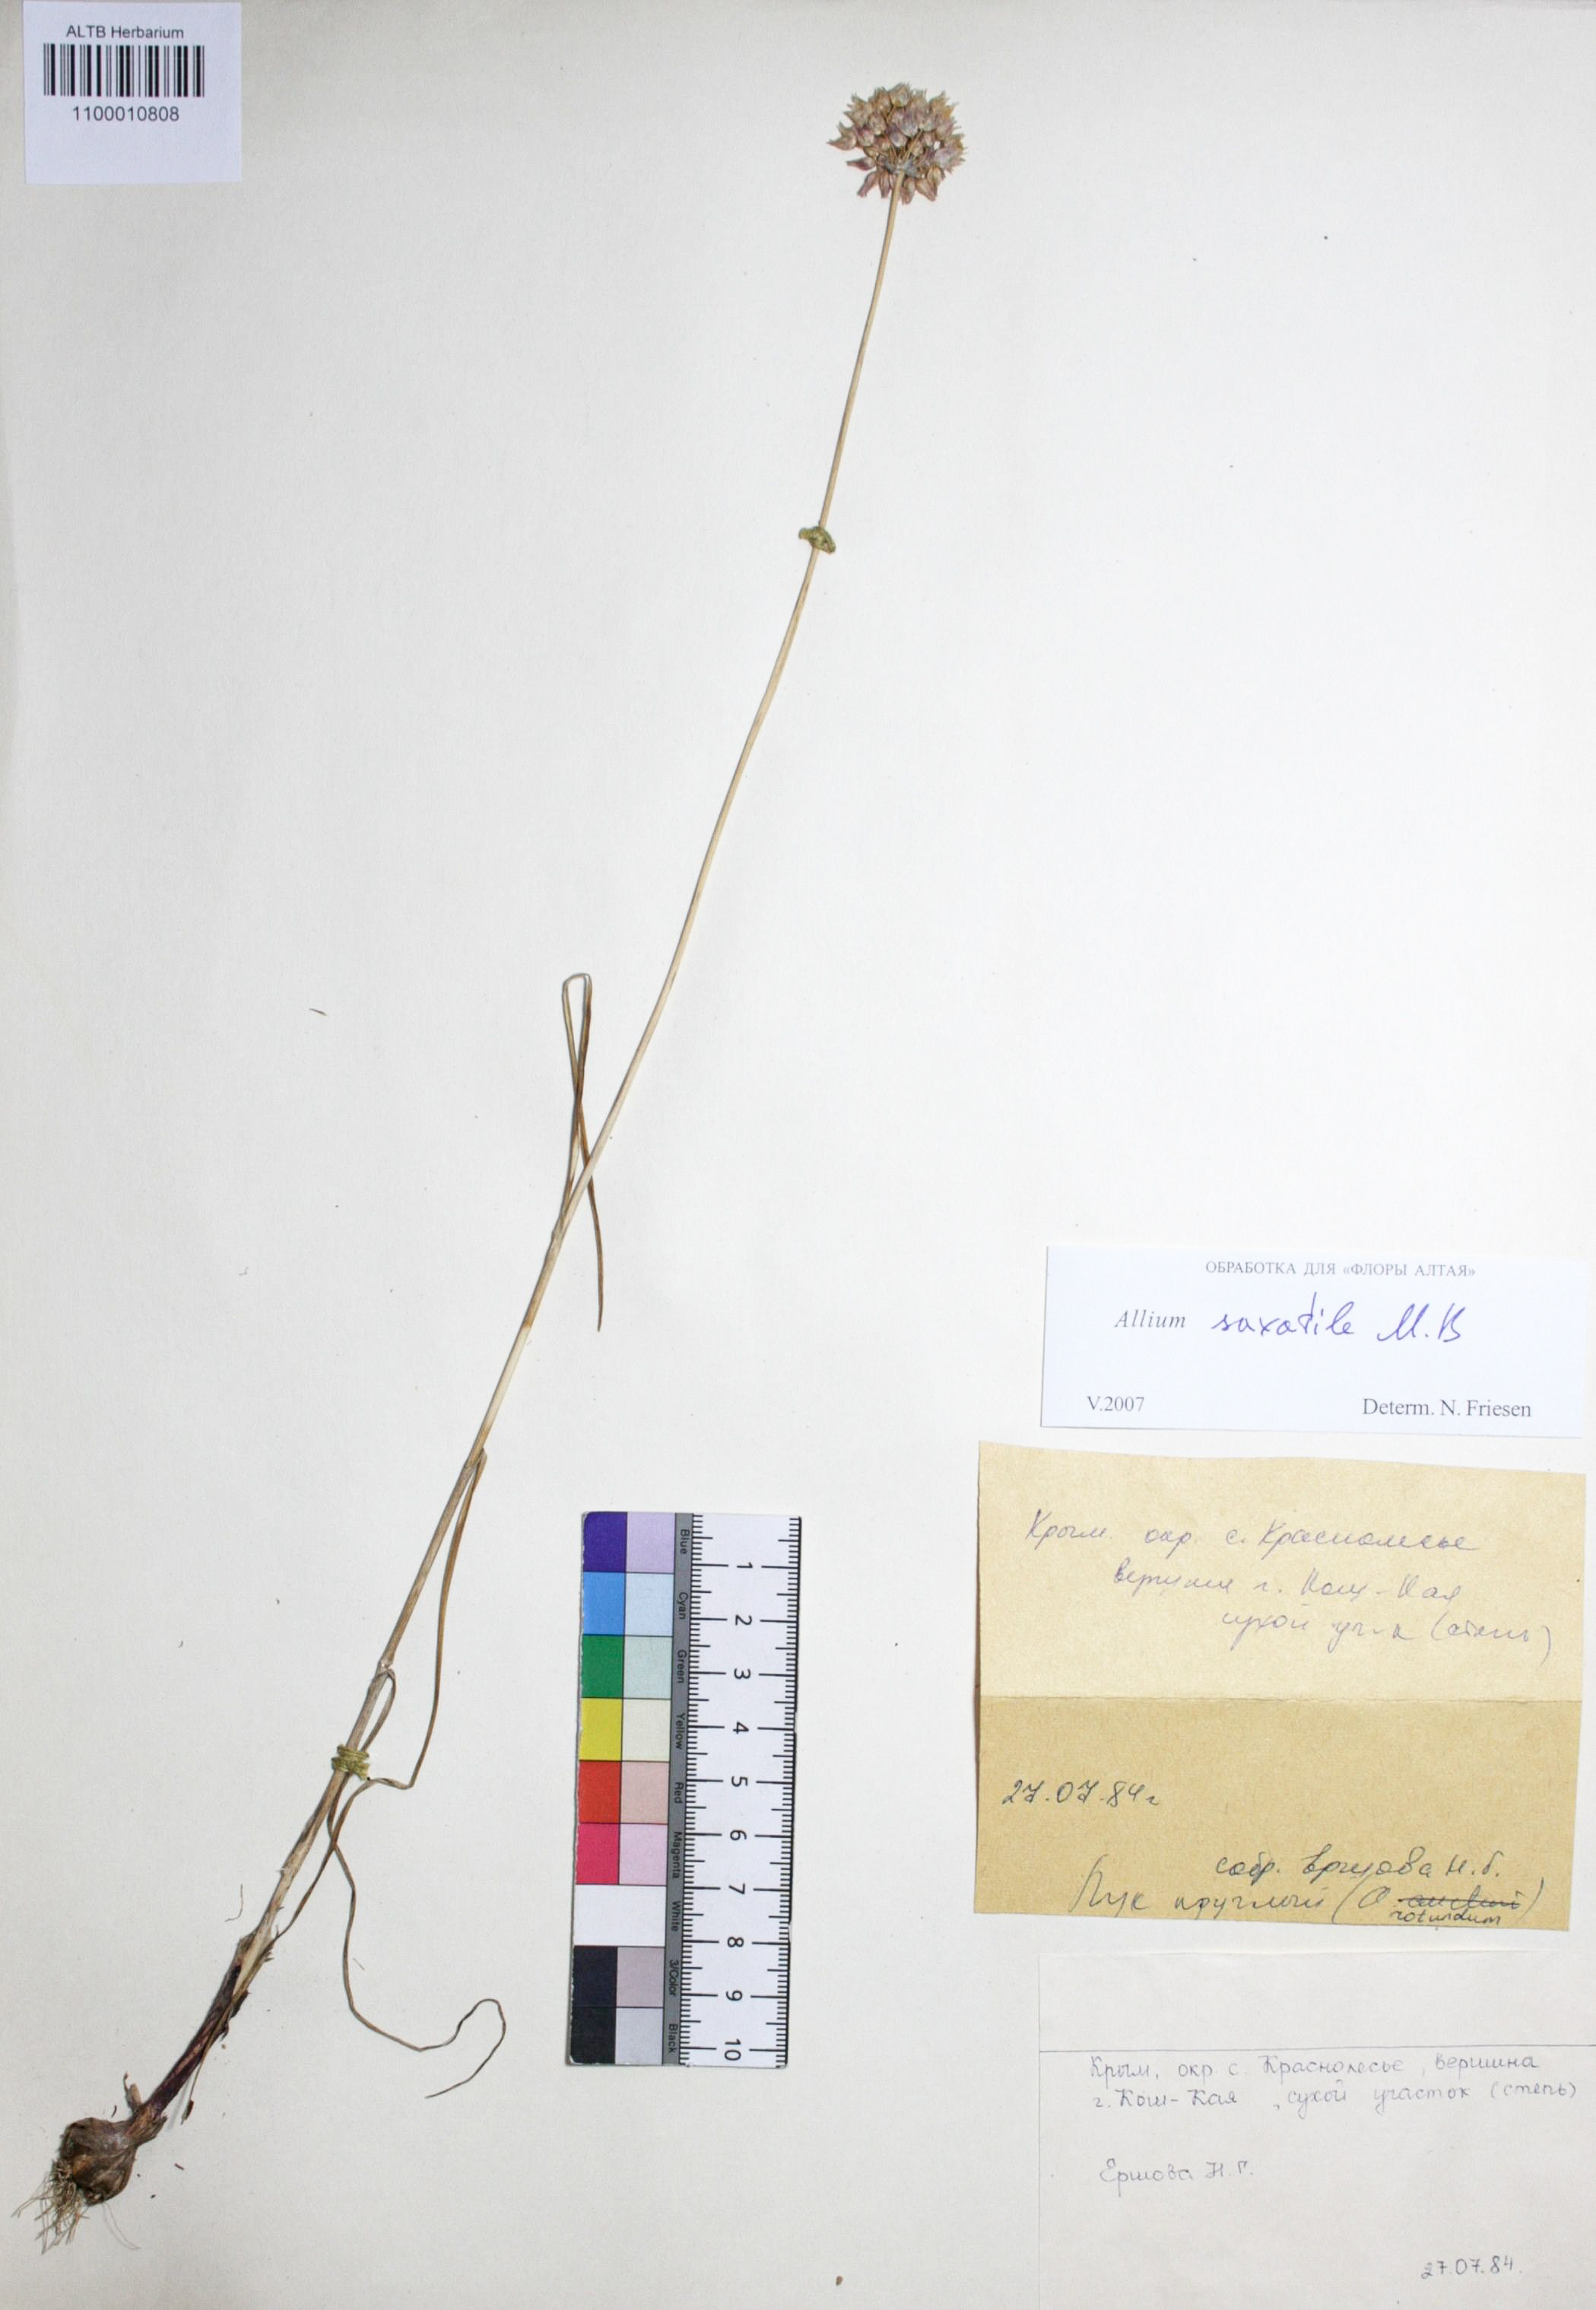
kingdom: Plantae
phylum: Tracheophyta
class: Liliopsida
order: Asparagales
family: Amaryllidaceae
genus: Allium
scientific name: Allium saxatile
